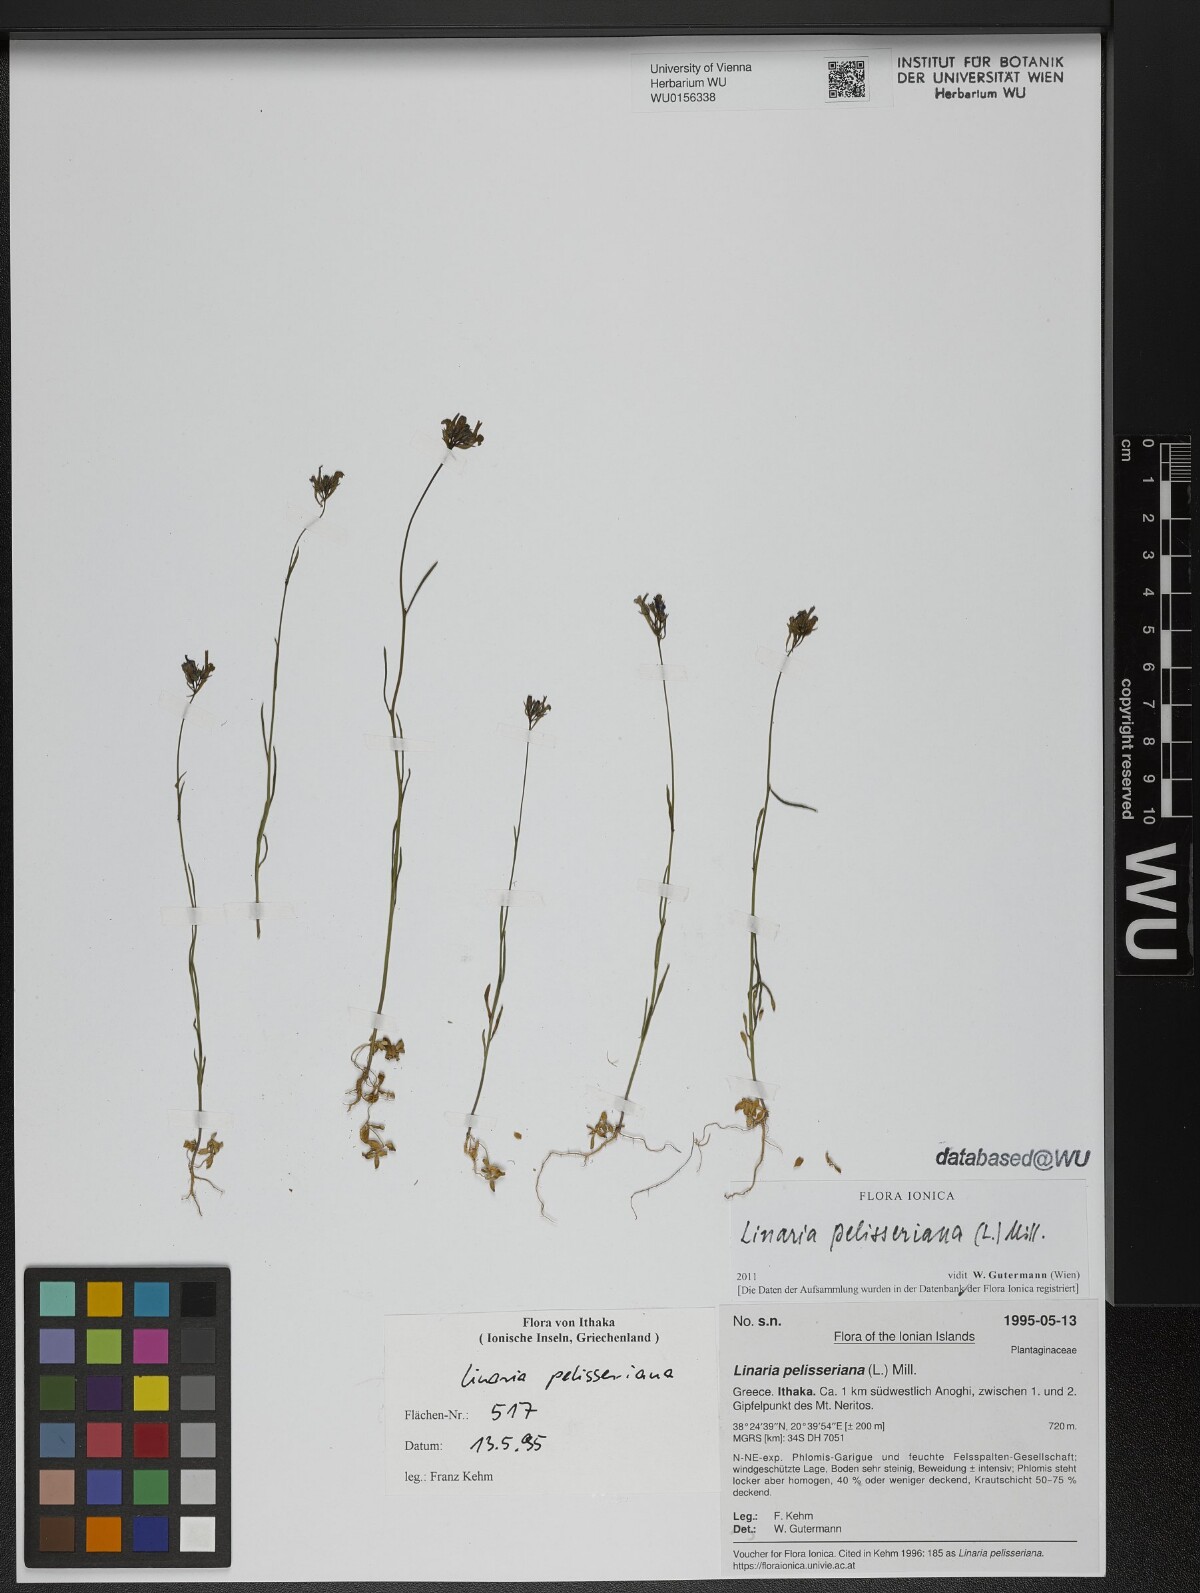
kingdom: Plantae
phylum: Tracheophyta
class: Magnoliopsida
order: Lamiales
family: Plantaginaceae
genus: Linaria
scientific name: Linaria pelisseriana
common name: Jersey toadflax
